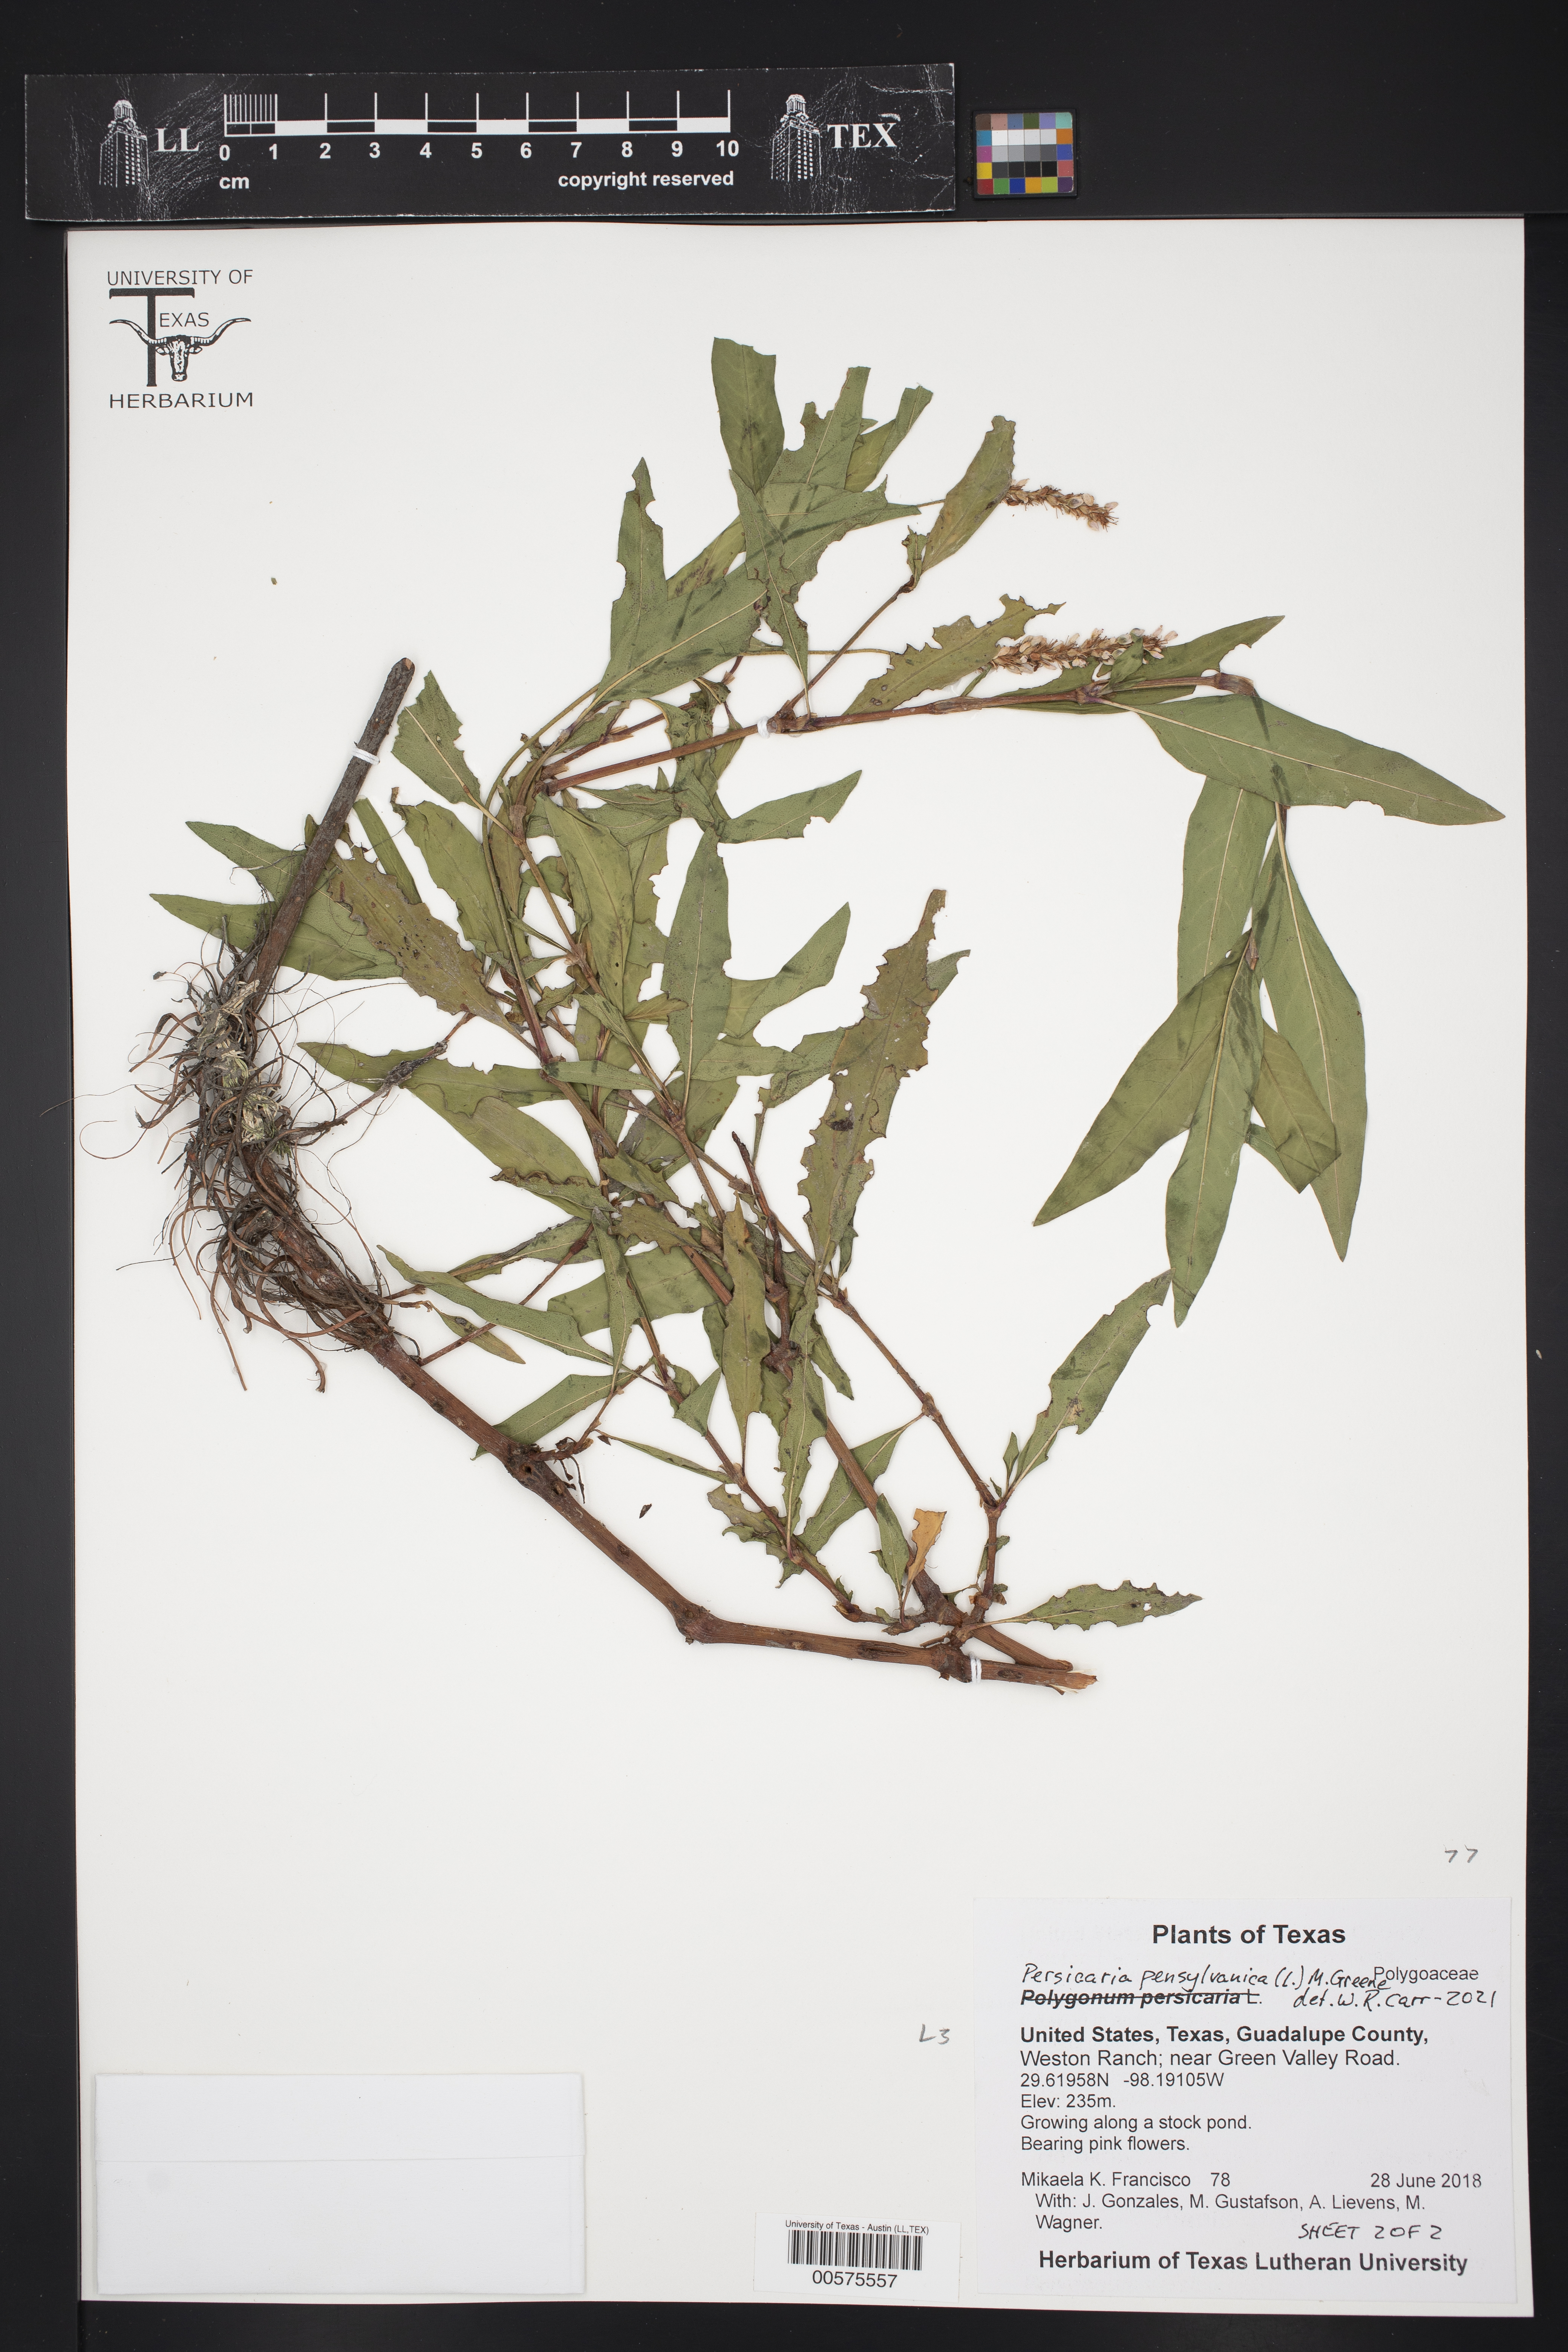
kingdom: Plantae
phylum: Tracheophyta
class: Magnoliopsida
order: Caryophyllales
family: Polygonaceae
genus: Persicaria
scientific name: Persicaria pensylvanica
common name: Pinkweed
